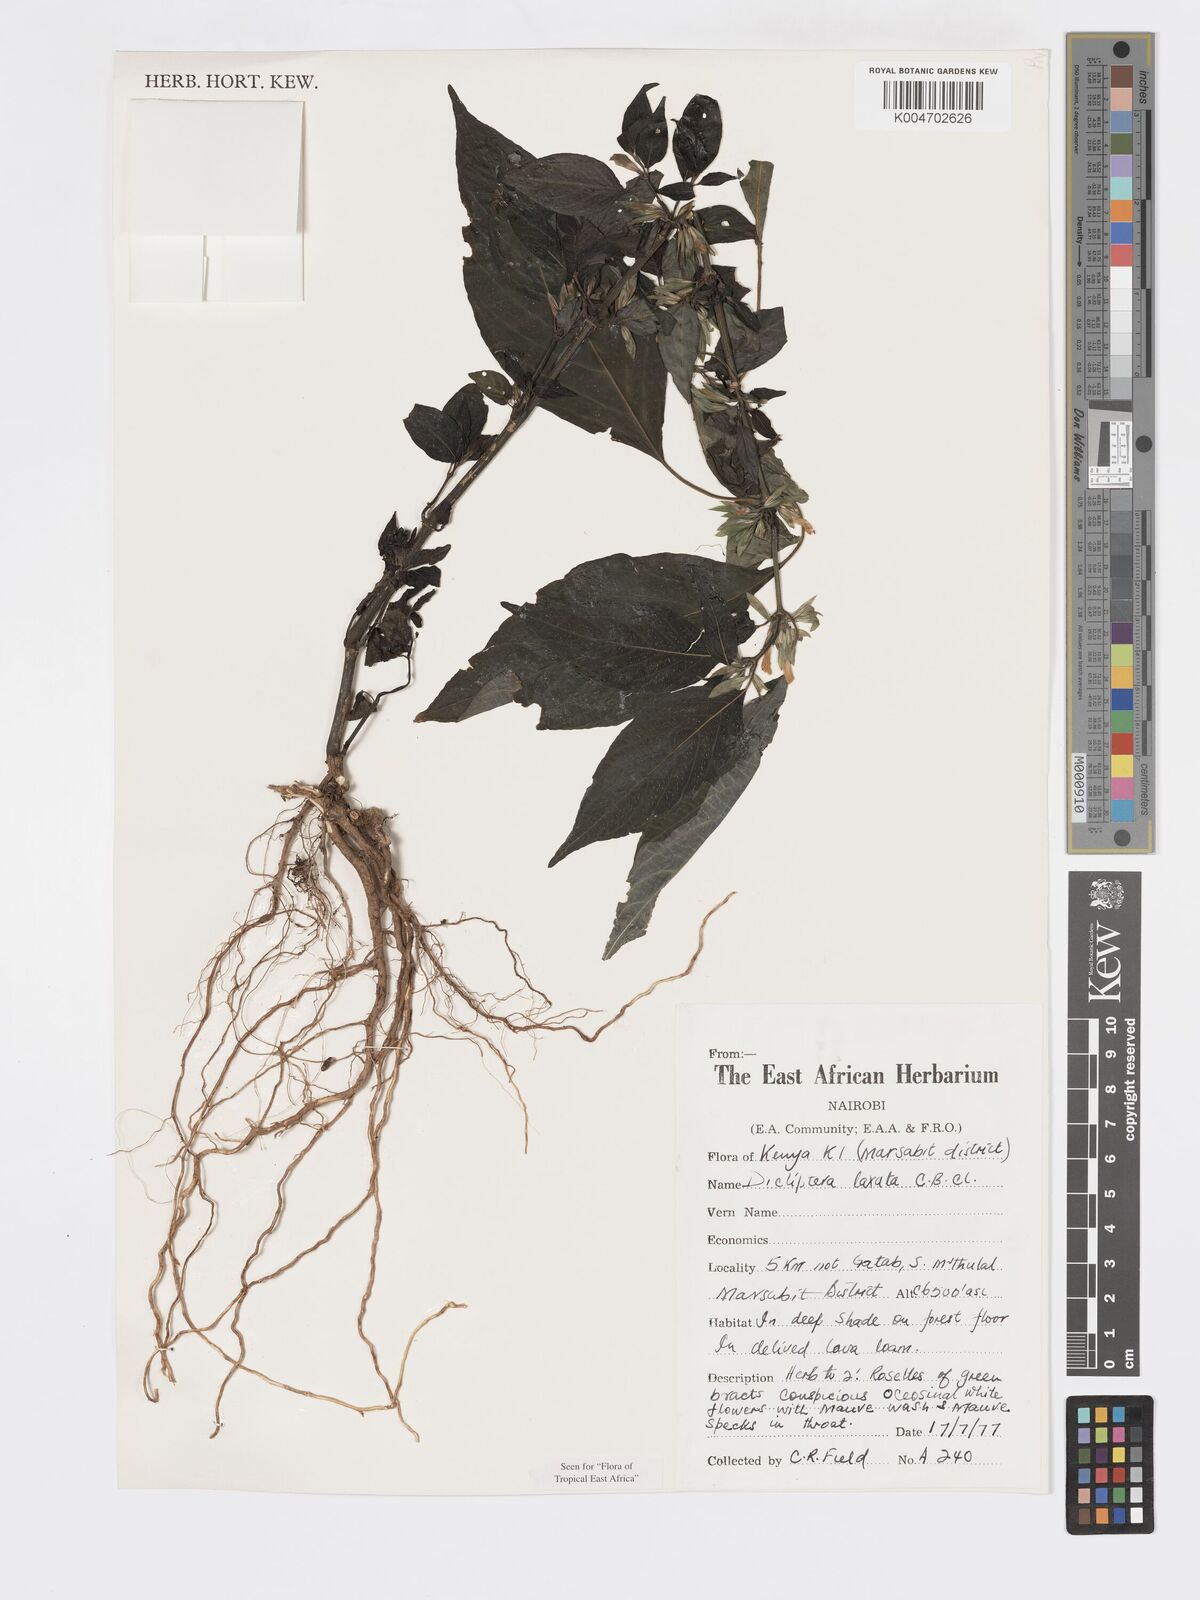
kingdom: Plantae
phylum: Tracheophyta
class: Magnoliopsida
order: Lamiales
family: Acanthaceae
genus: Dicliptera
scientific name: Dicliptera laxata
